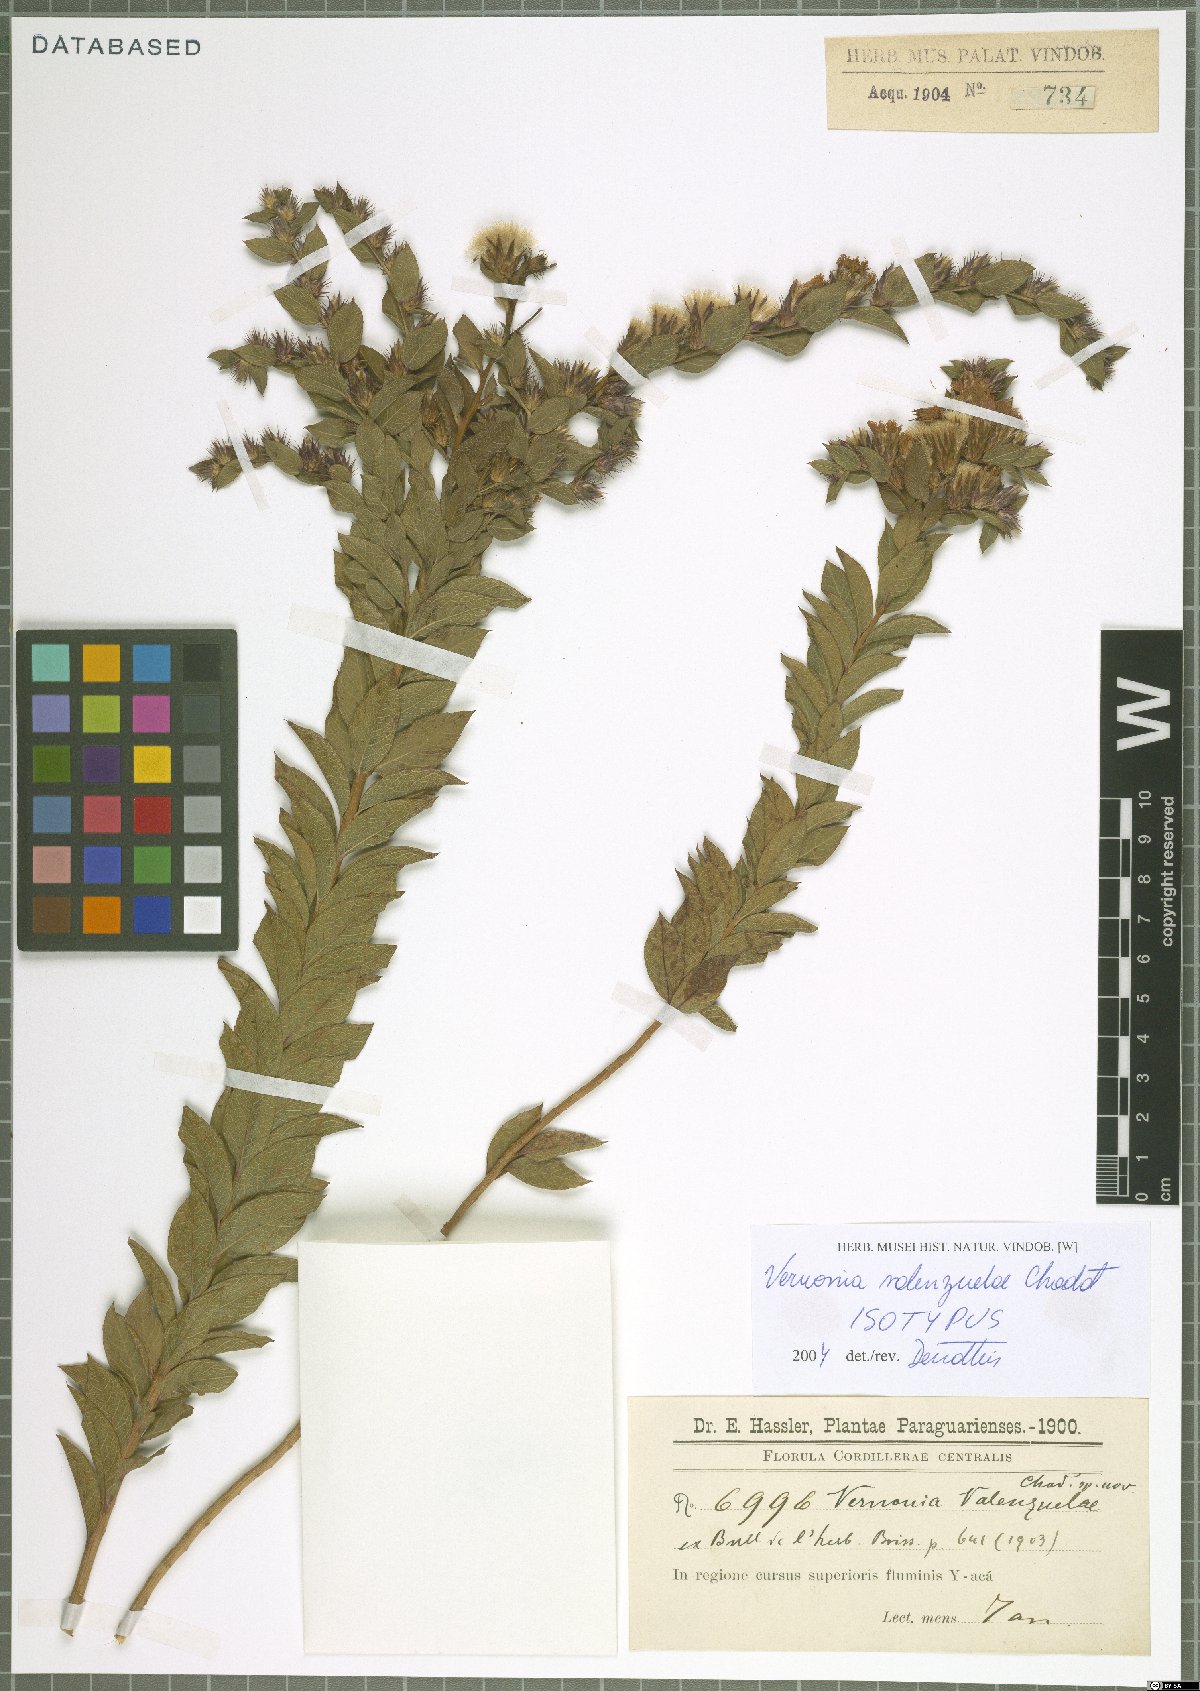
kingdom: Plantae
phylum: Tracheophyta
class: Magnoliopsida
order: Asterales
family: Asteraceae
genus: Lessingianthus
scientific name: Lessingianthus valenzuelae
